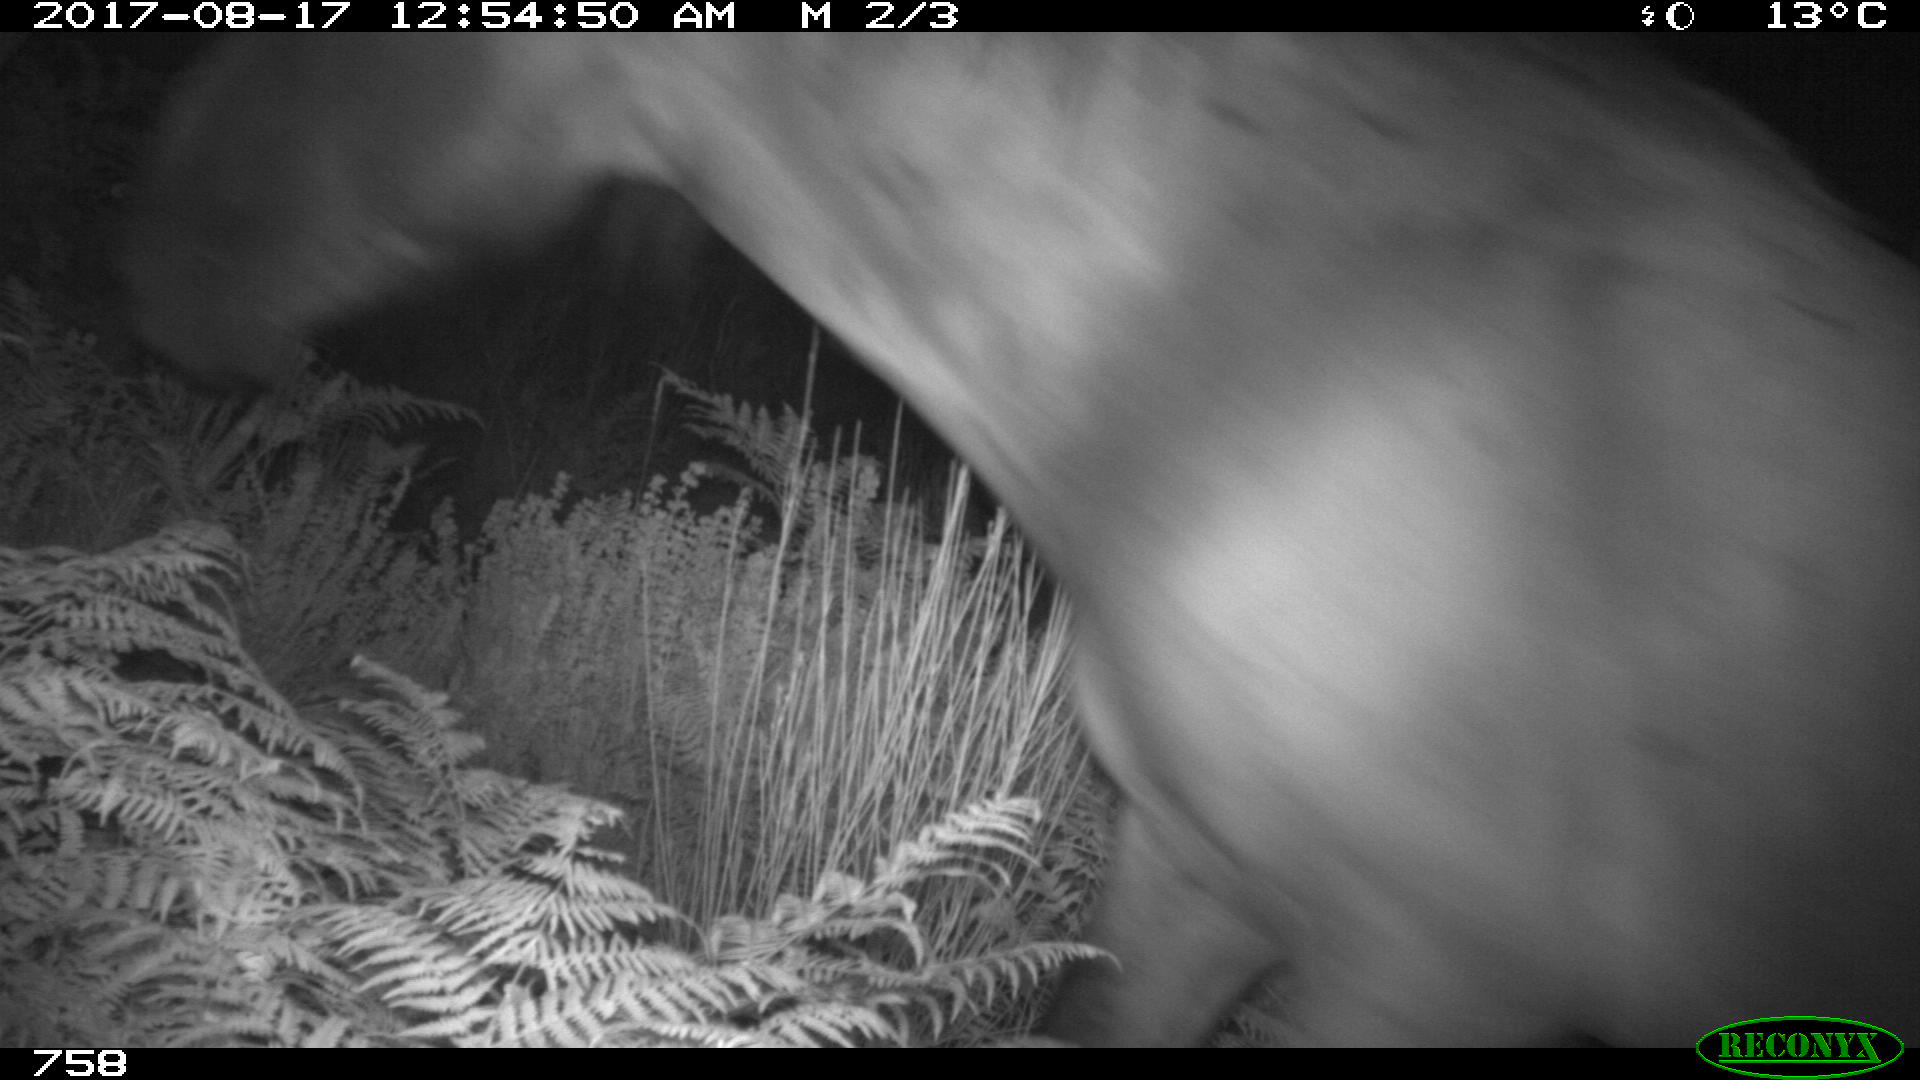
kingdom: Animalia
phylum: Chordata
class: Mammalia
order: Perissodactyla
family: Equidae
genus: Equus
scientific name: Equus caballus
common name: Horse
